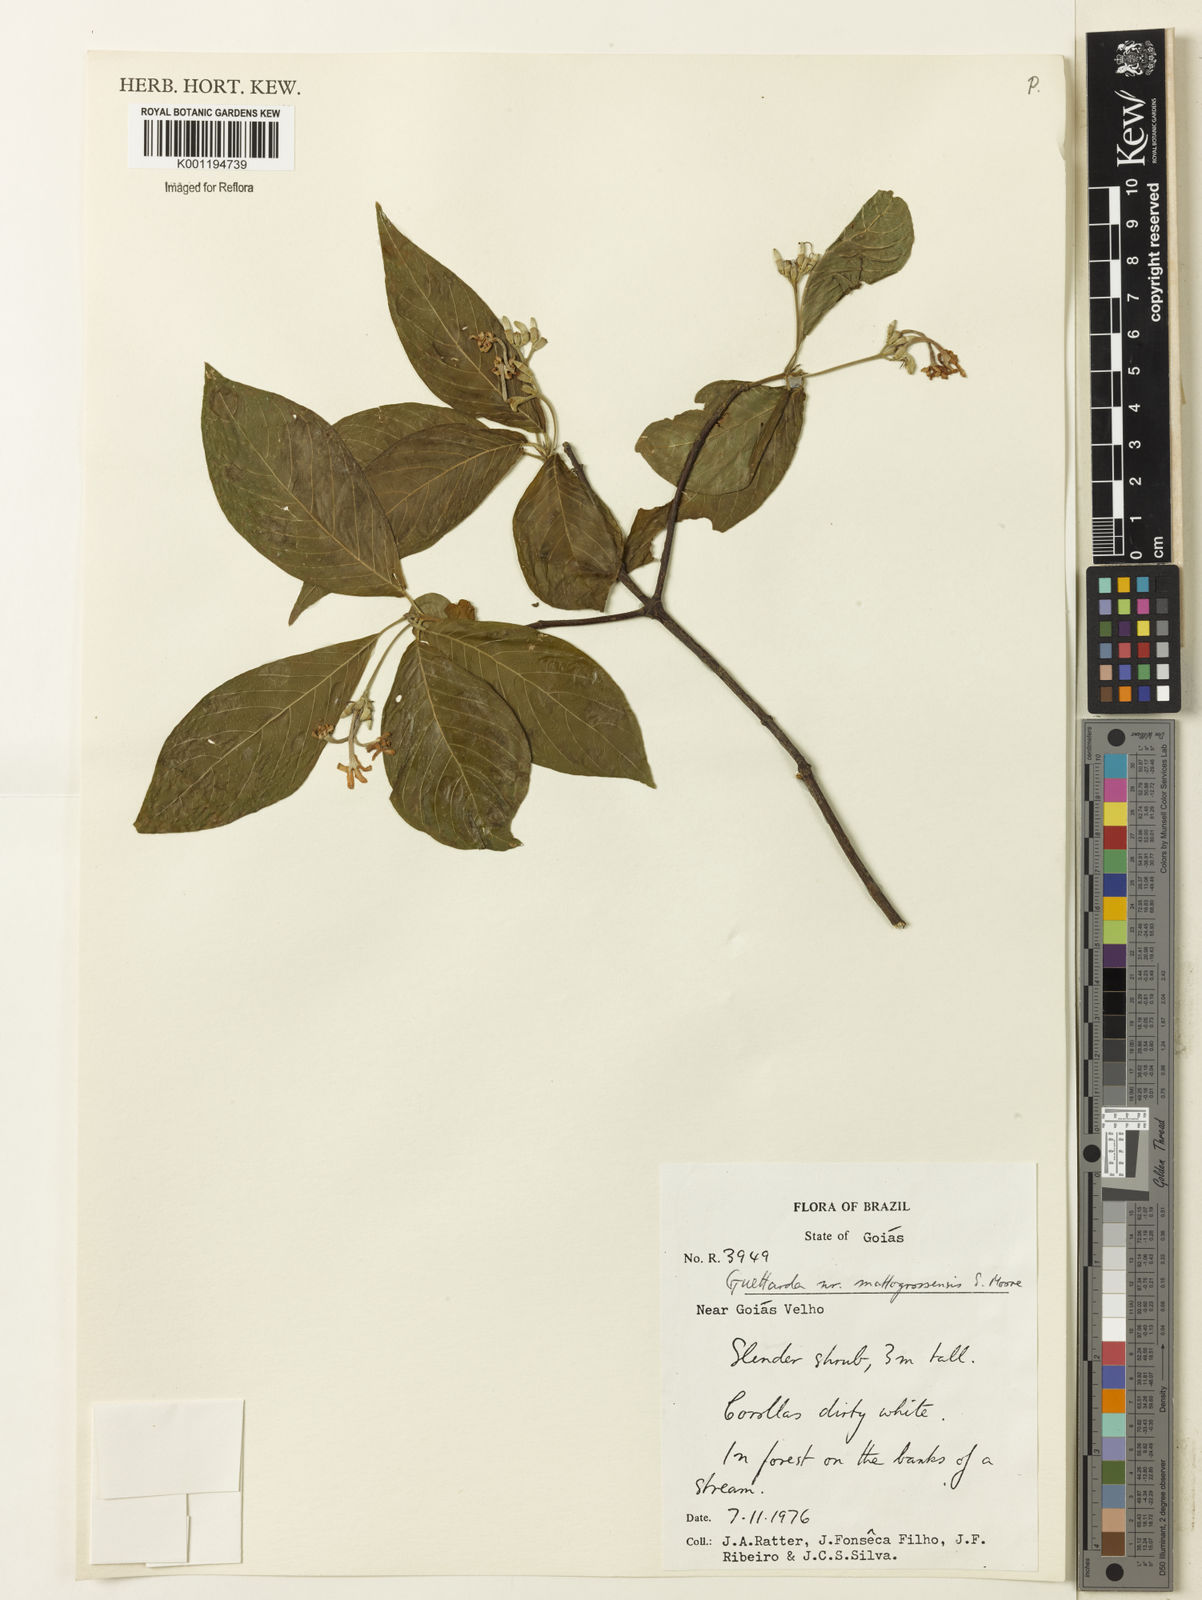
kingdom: Plantae
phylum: Tracheophyta
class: Magnoliopsida
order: Gentianales
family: Rubiaceae
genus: Guettarda
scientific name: Guettarda mattogrossensis
